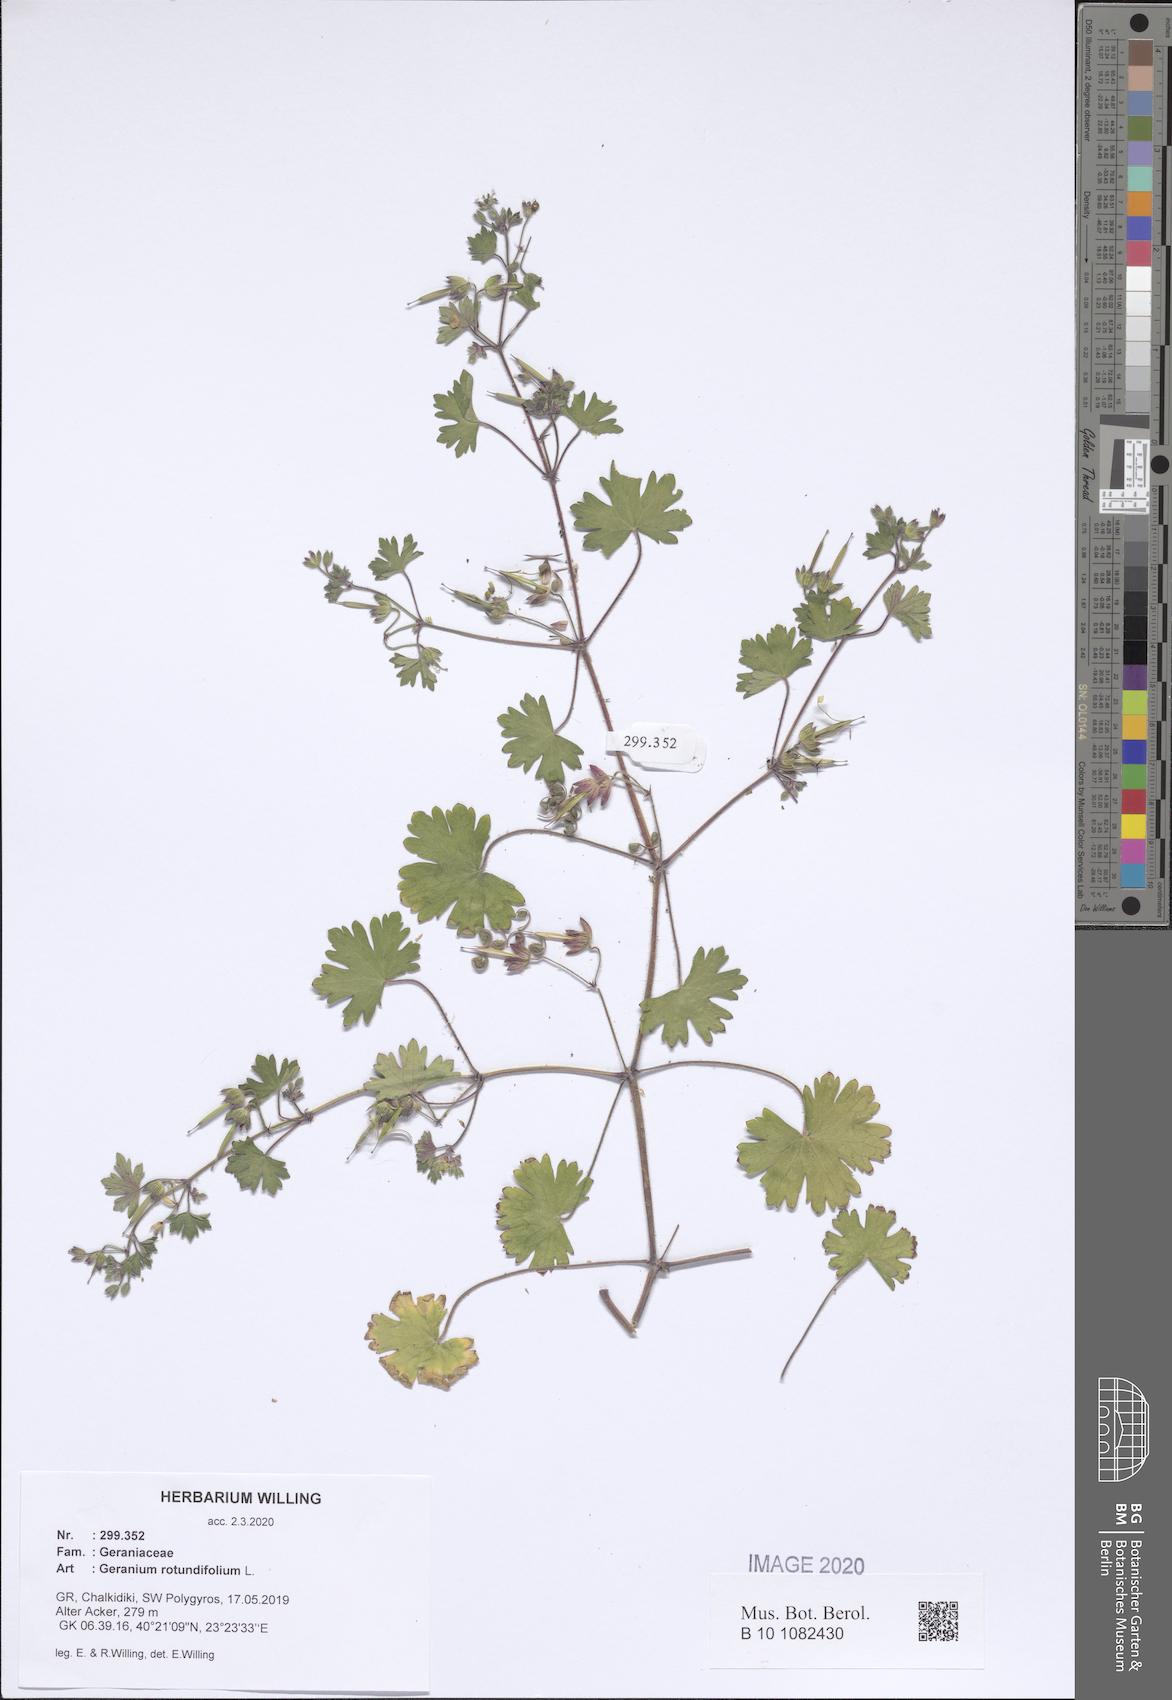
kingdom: Plantae
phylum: Tracheophyta
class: Magnoliopsida
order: Geraniales
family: Geraniaceae
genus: Geranium
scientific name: Geranium rotundifolium
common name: Round-leaved crane's-bill
